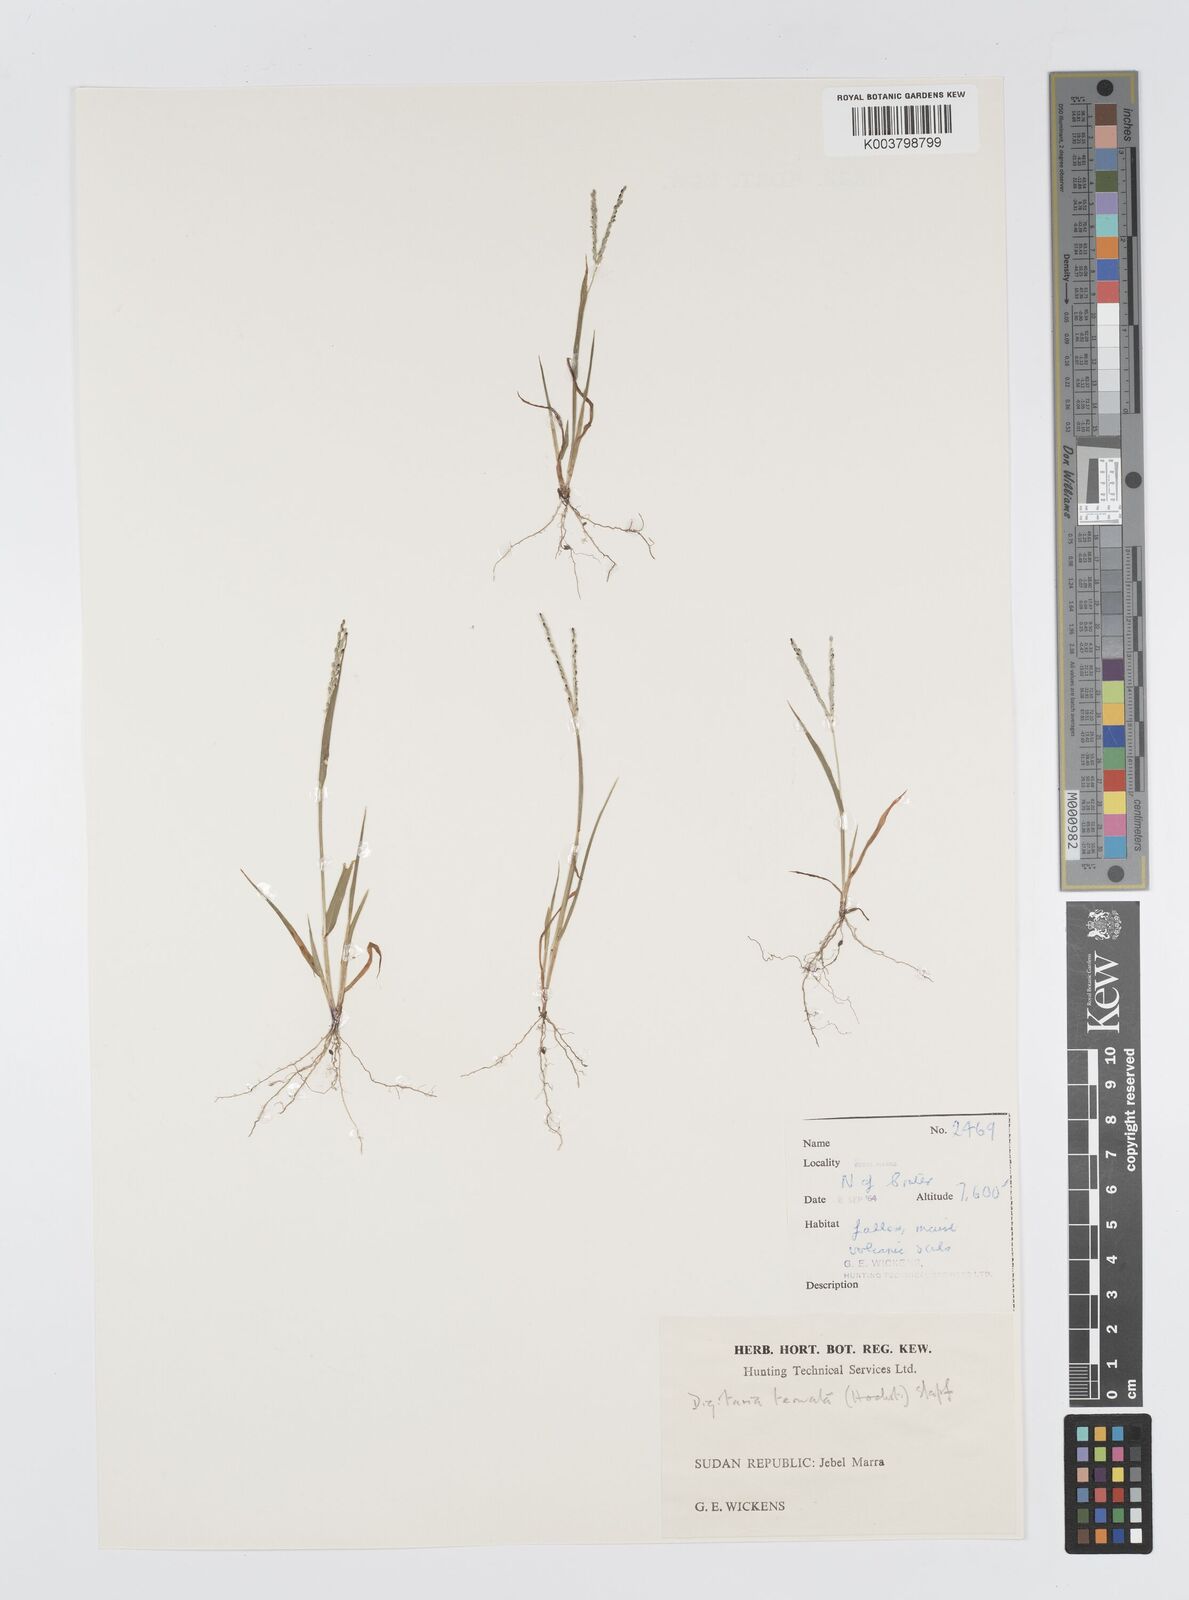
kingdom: Plantae
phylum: Tracheophyta
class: Liliopsida
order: Poales
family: Poaceae
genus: Digitaria
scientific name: Digitaria ternata
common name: Blackseed crabgrass
